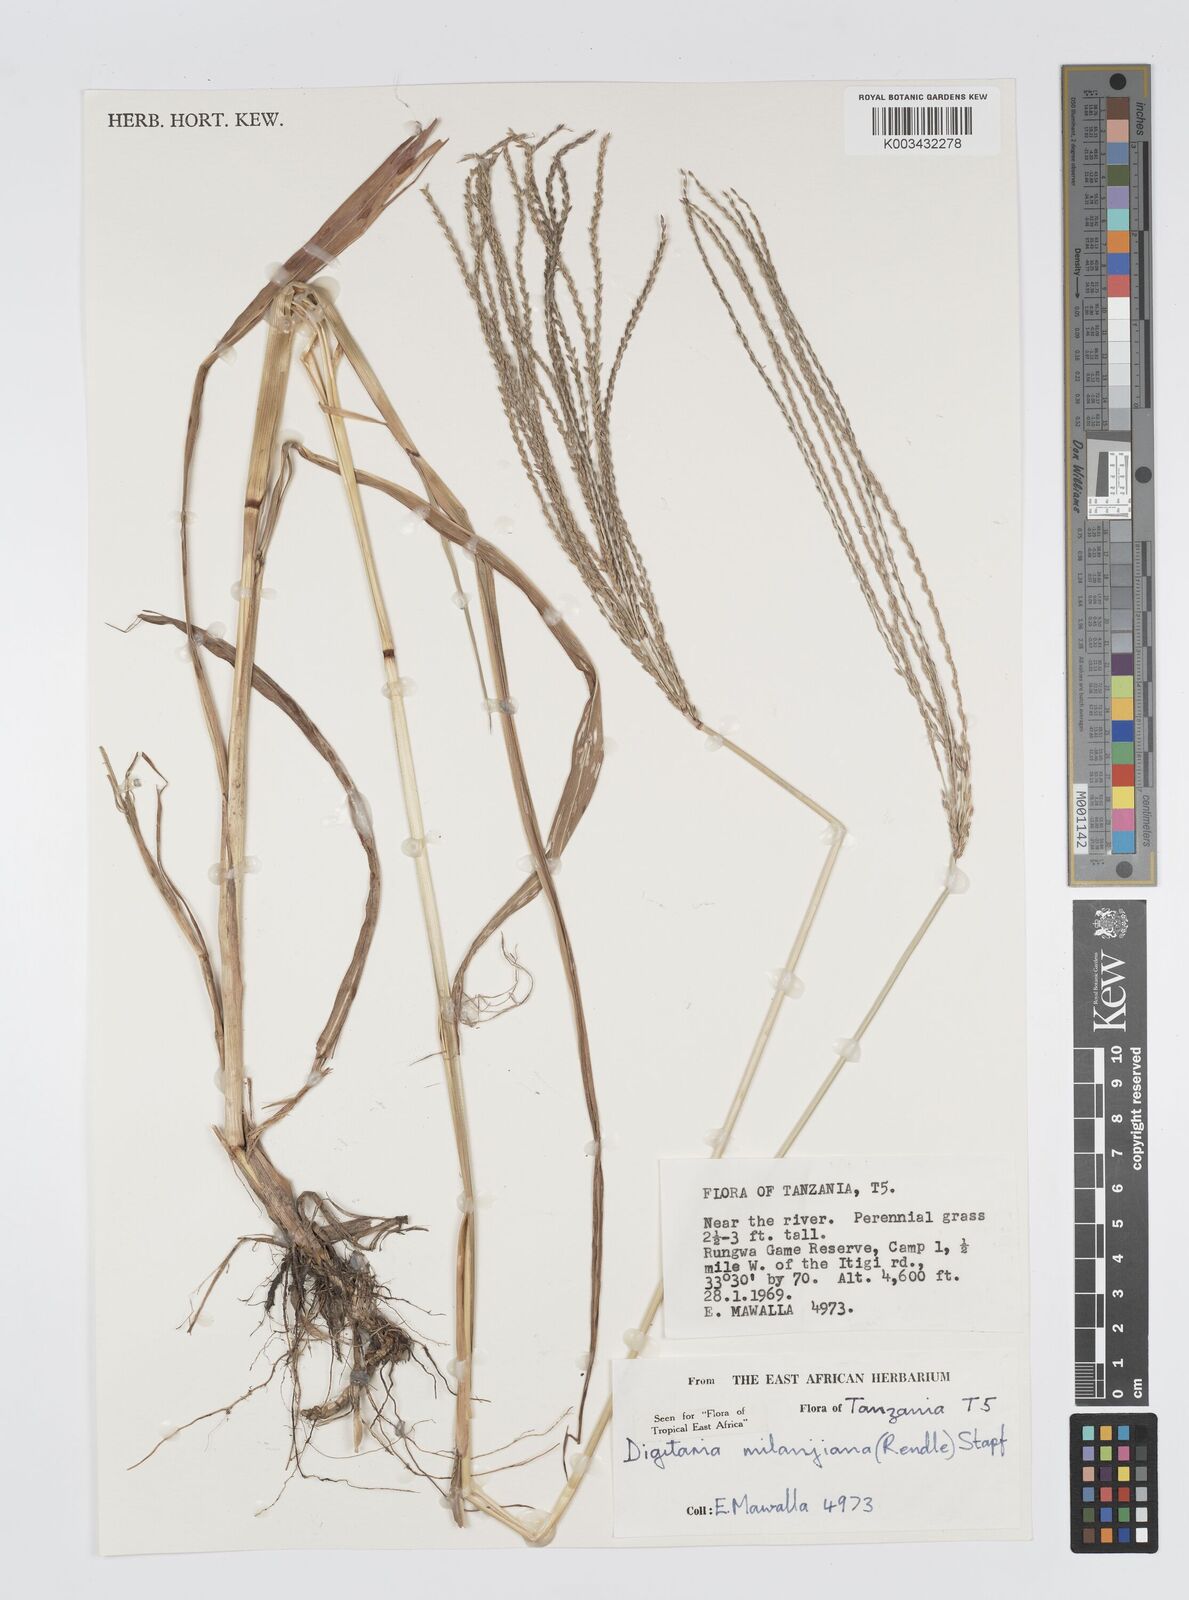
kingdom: Plantae
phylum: Tracheophyta
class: Liliopsida
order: Poales
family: Poaceae
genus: Digitaria
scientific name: Digitaria milanjiana
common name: Madagascar crabgrass
